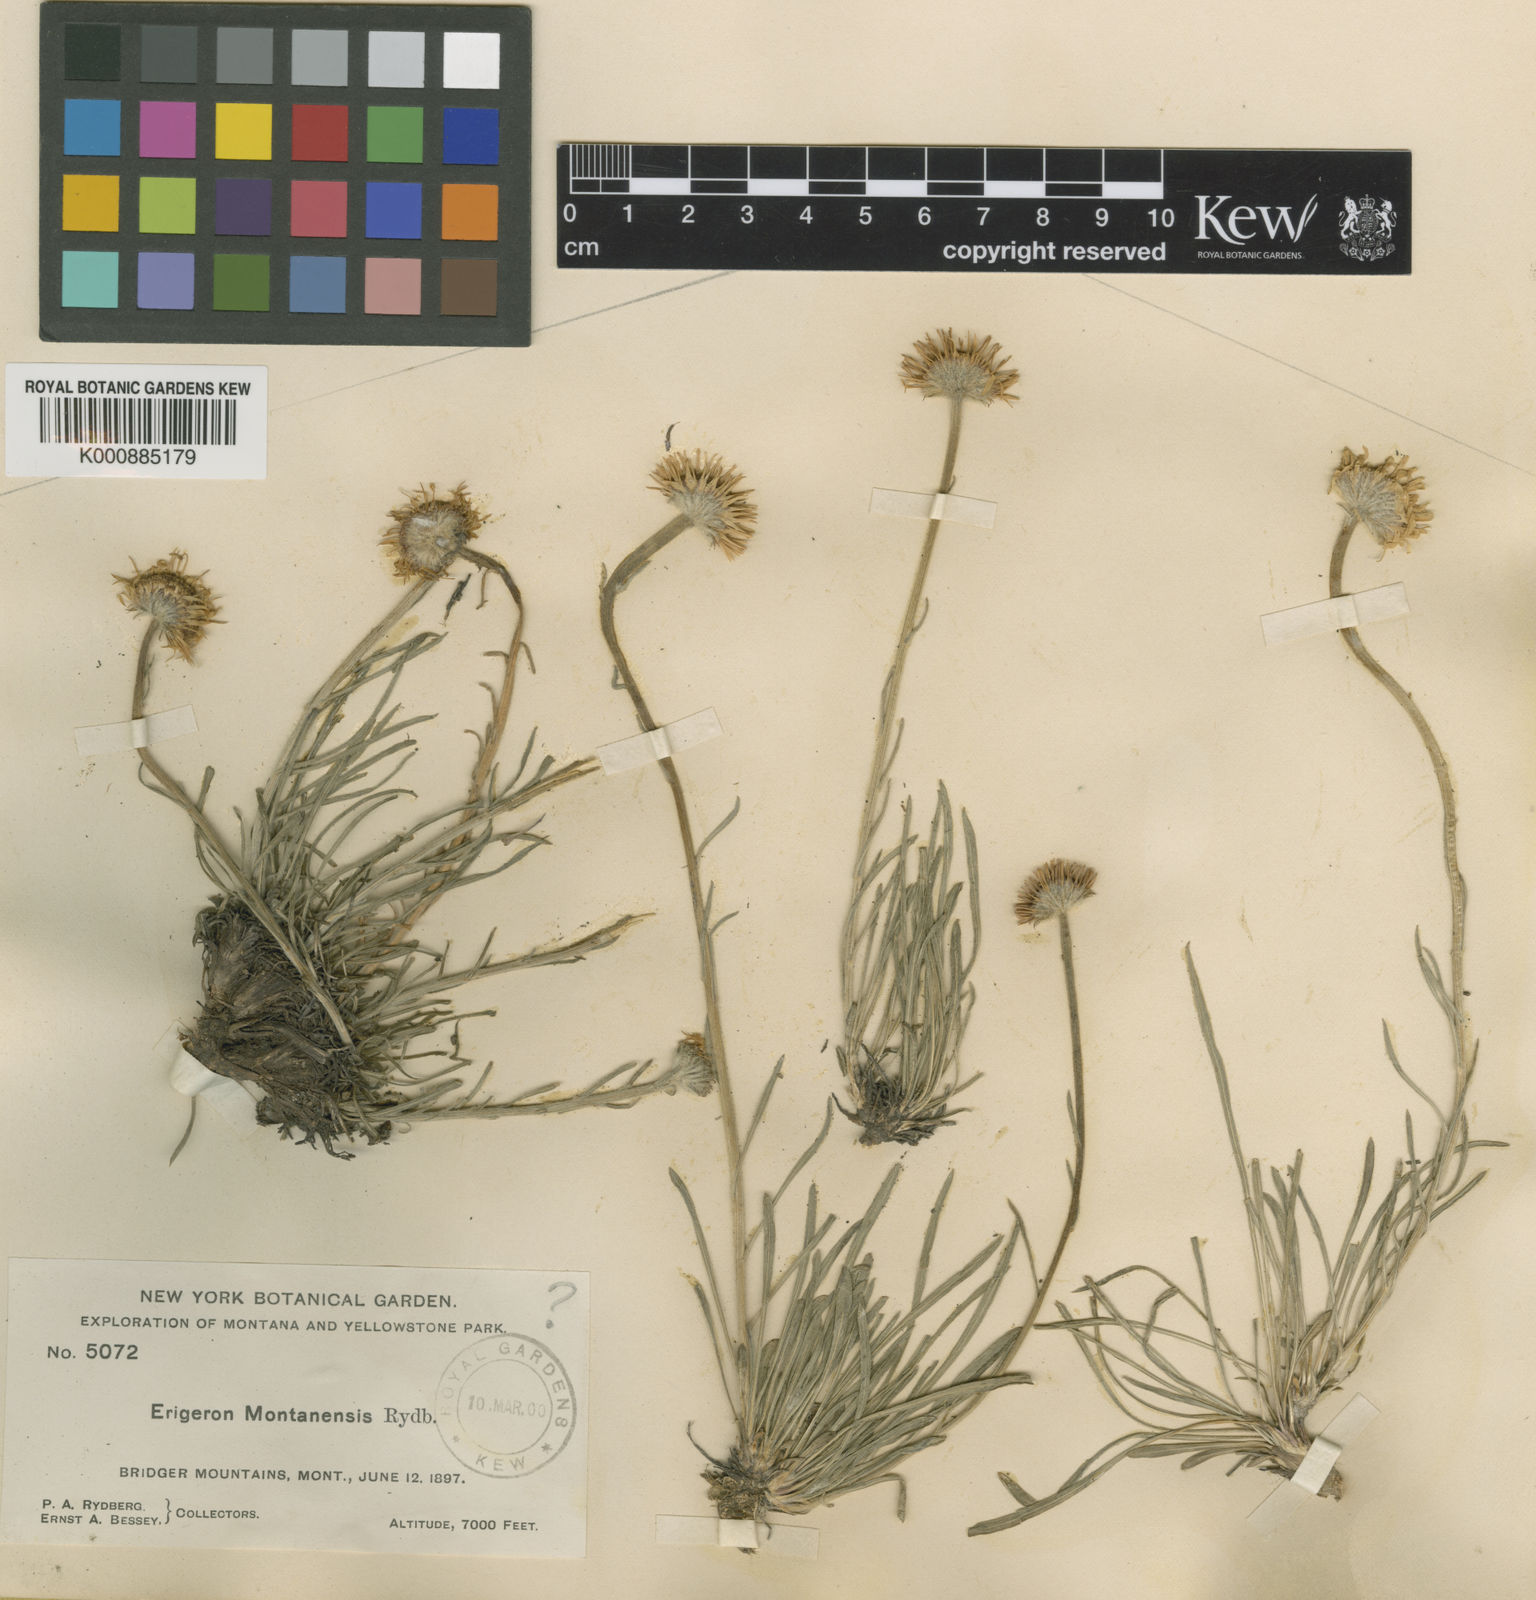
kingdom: Plantae
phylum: Tracheophyta
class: Magnoliopsida
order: Asterales
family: Asteraceae
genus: Erigeron
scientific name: Erigeron ochroleucus
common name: Buff fleabane
